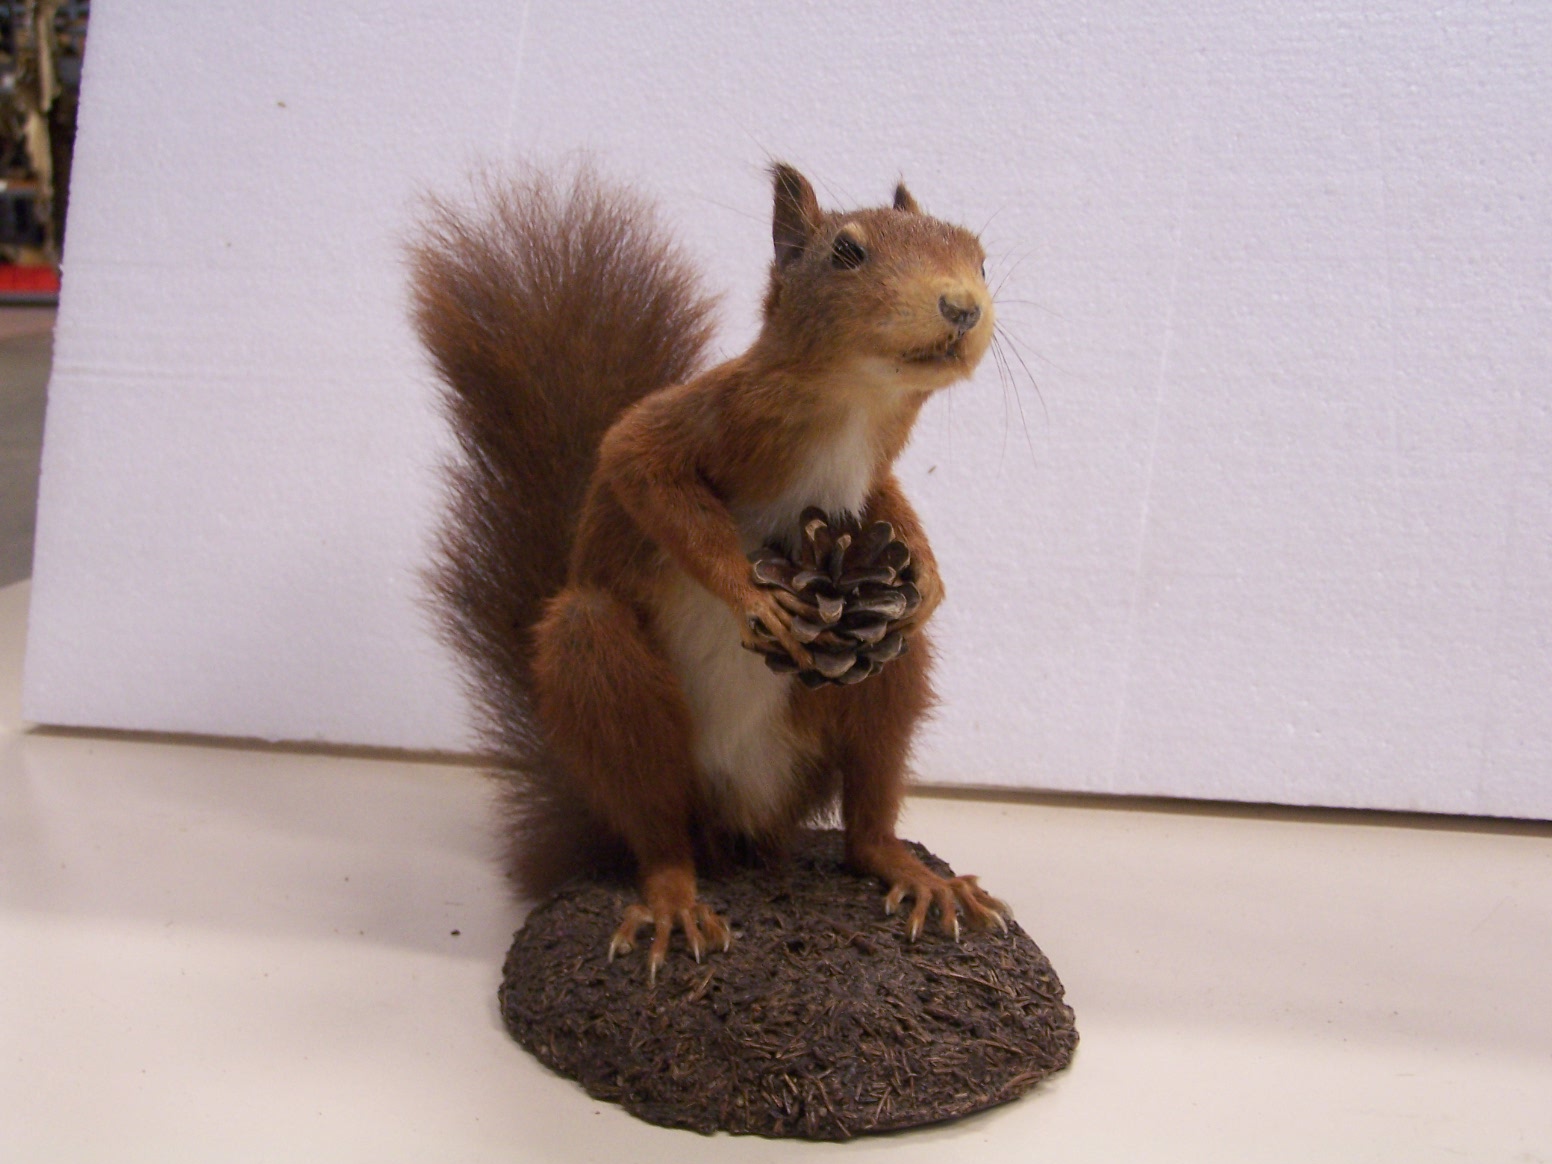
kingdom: Animalia
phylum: Chordata
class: Mammalia
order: Rodentia
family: Sciuridae
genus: Sciurus
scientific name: Sciurus vulgaris
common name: Eurasian red squirrel
